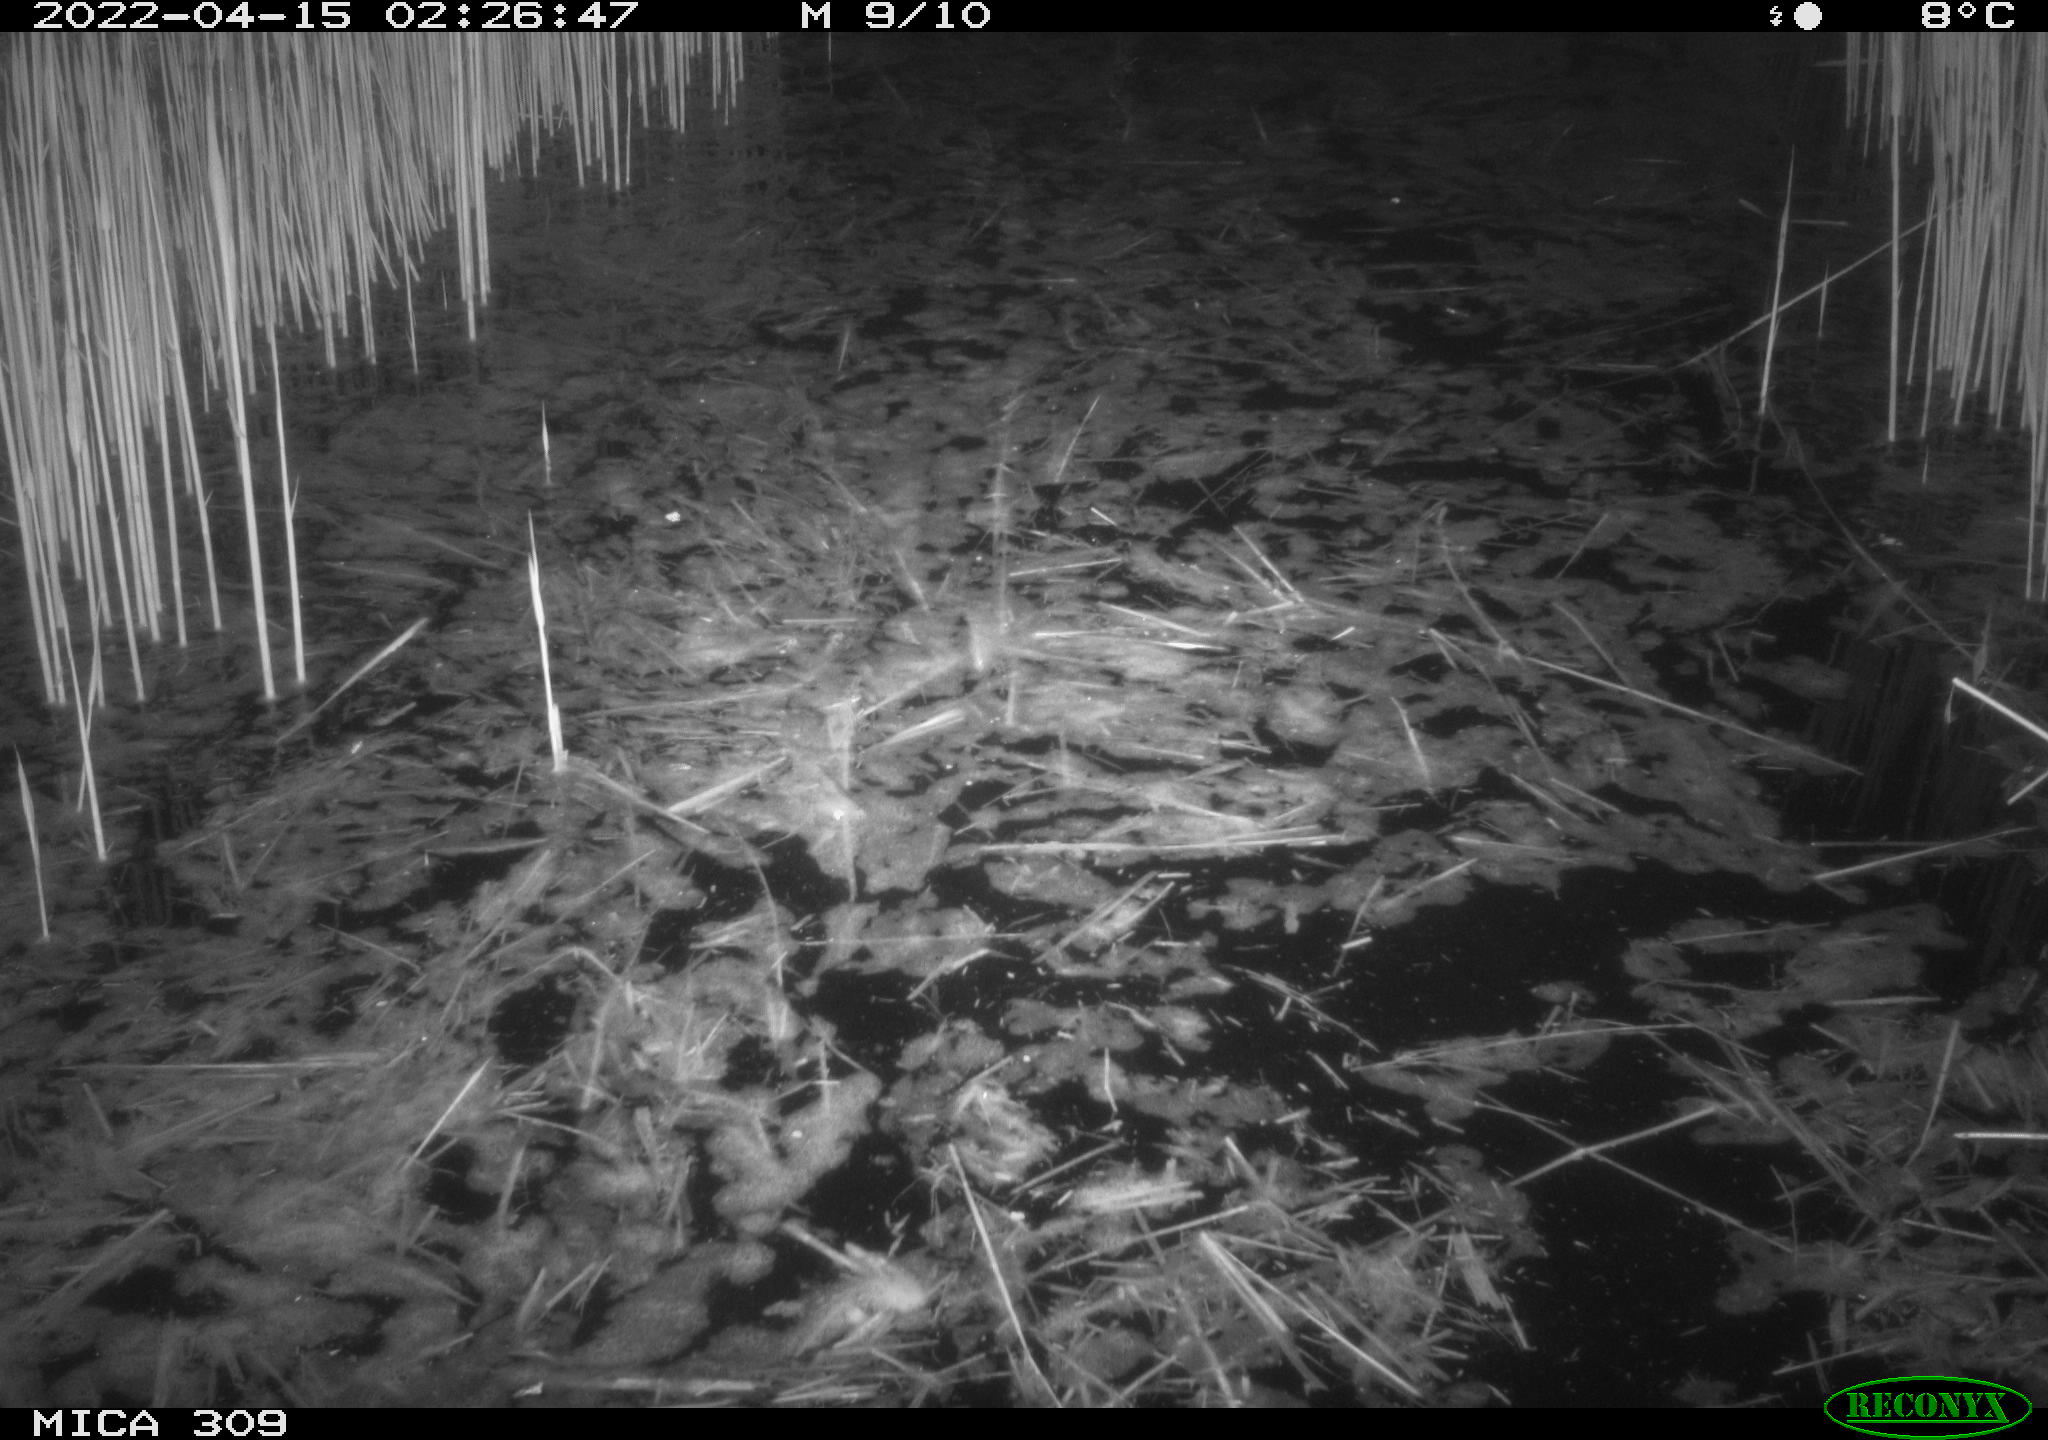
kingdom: Animalia
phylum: Chordata
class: Aves
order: Anseriformes
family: Anatidae
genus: Anas
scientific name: Anas platyrhynchos
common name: Mallard
